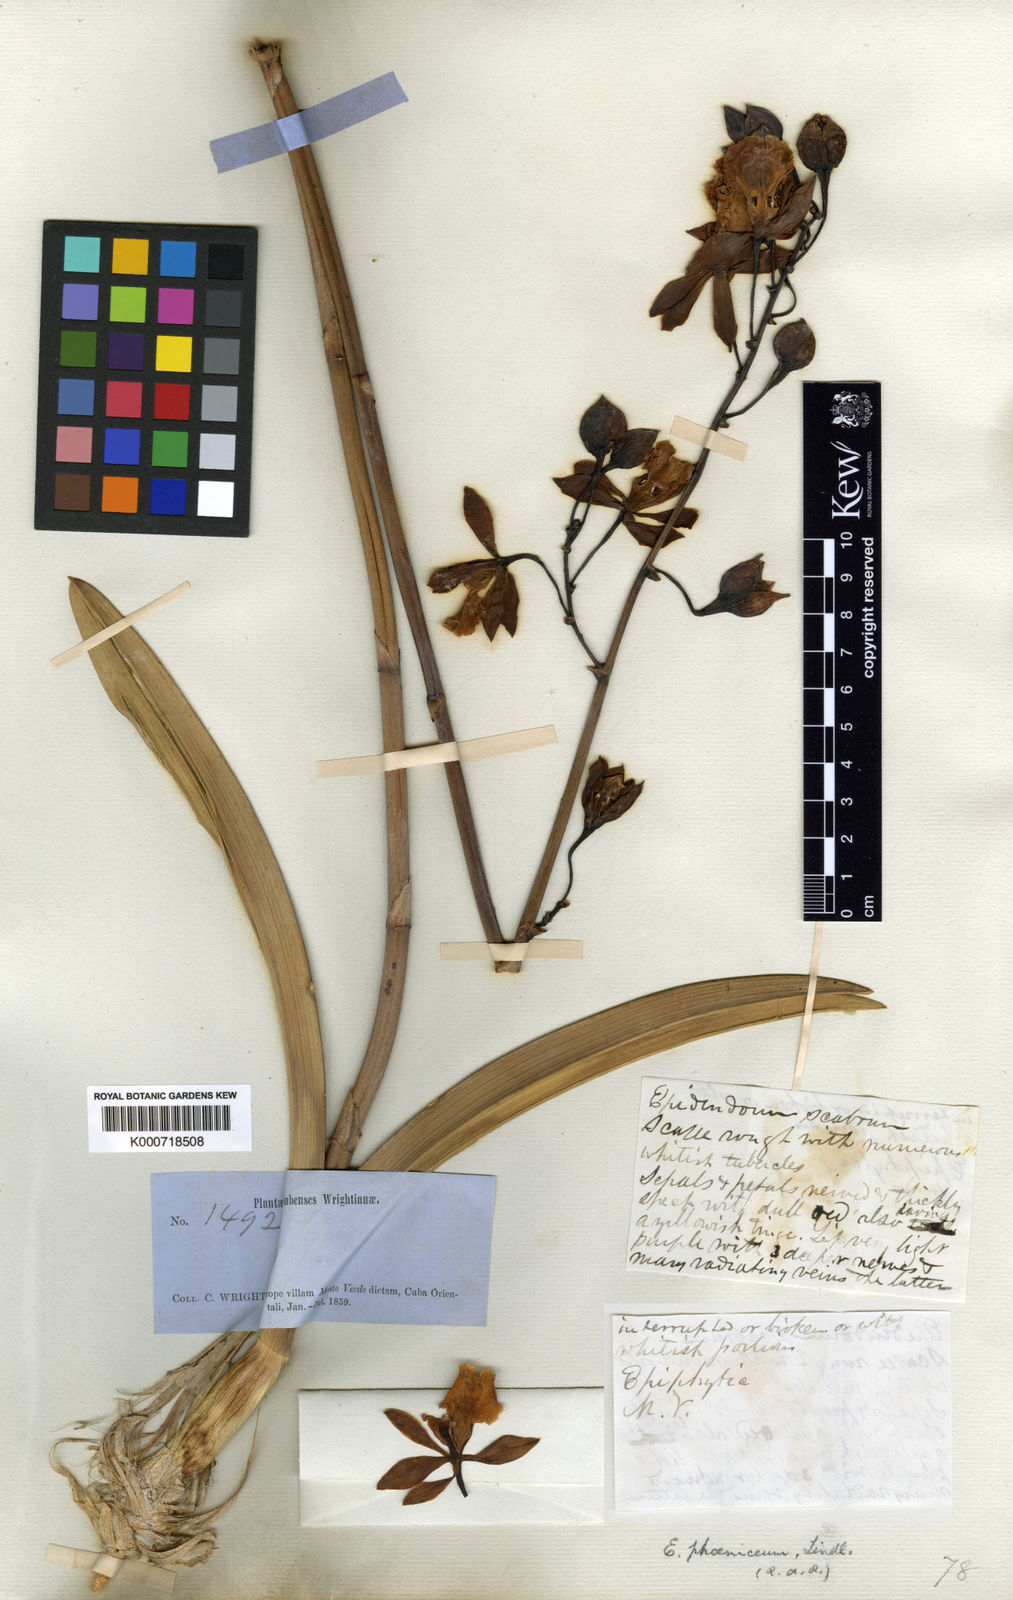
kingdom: Plantae
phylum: Tracheophyta
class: Liliopsida
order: Asparagales
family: Orchidaceae
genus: Encyclia
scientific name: Encyclia phoenicea
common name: Chocolate orchid
